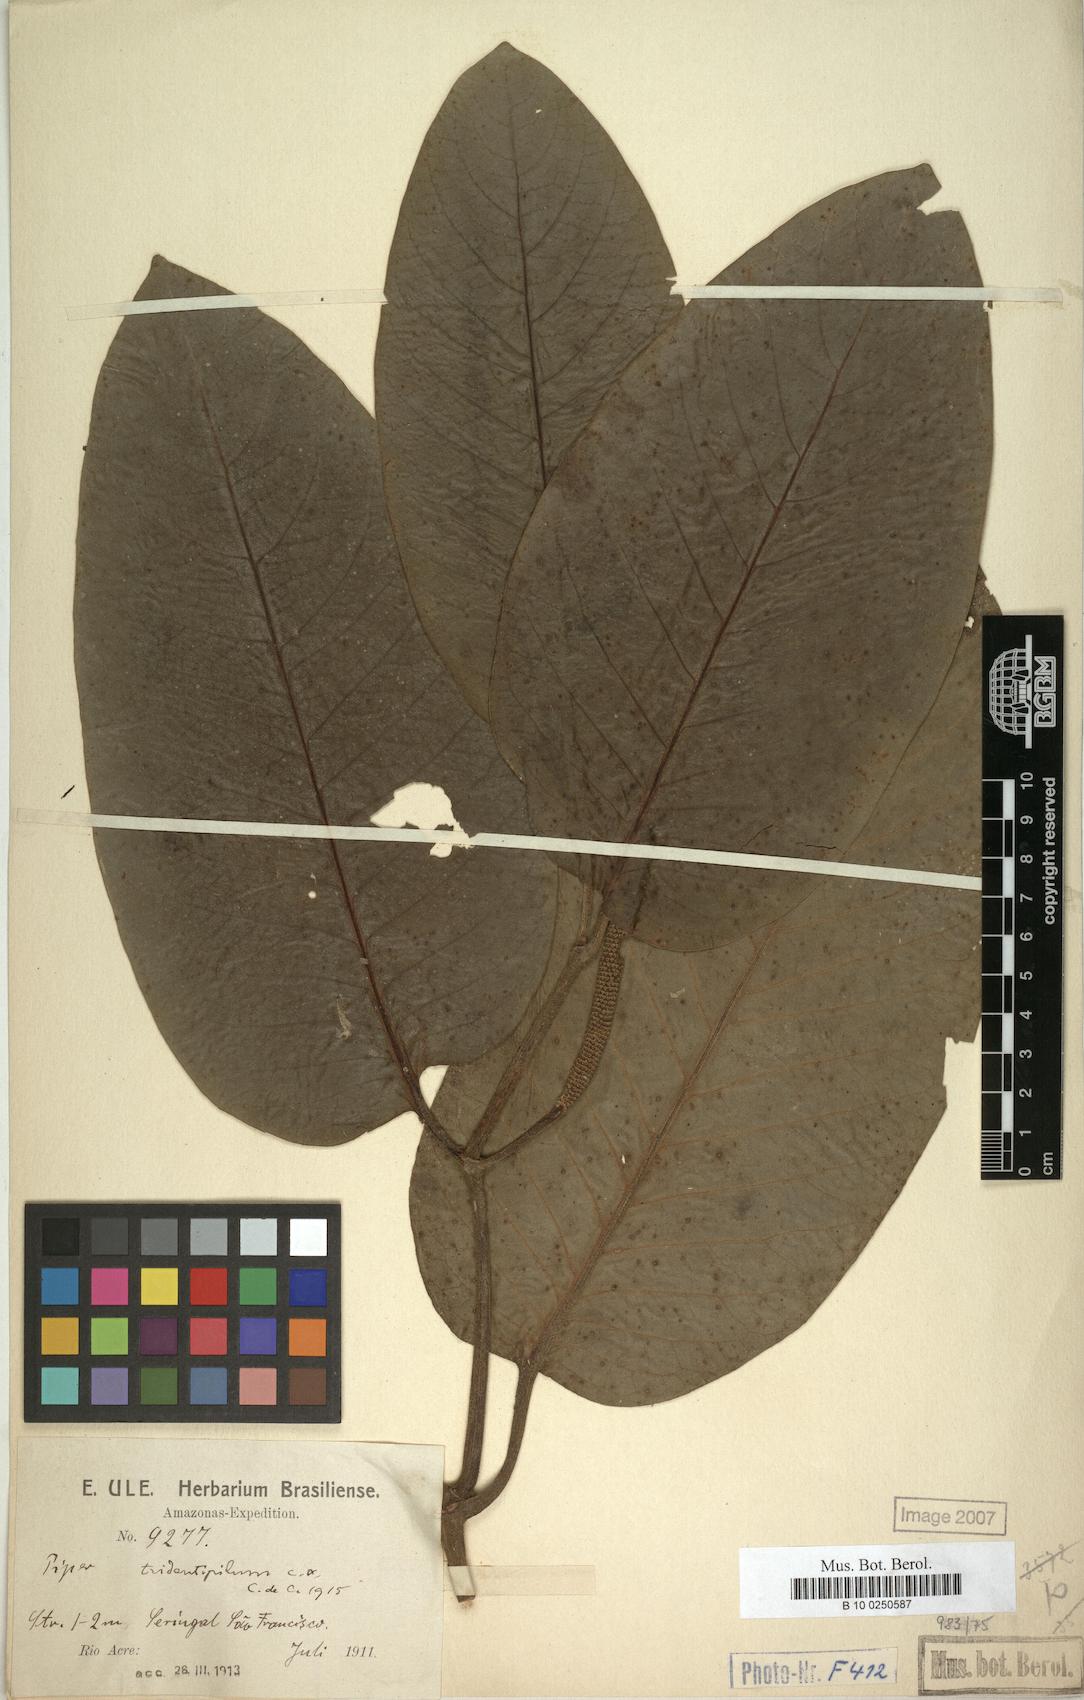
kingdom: Plantae
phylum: Tracheophyta
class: Magnoliopsida
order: Piperales
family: Piperaceae
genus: Piper
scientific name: Piper tridentipilum
